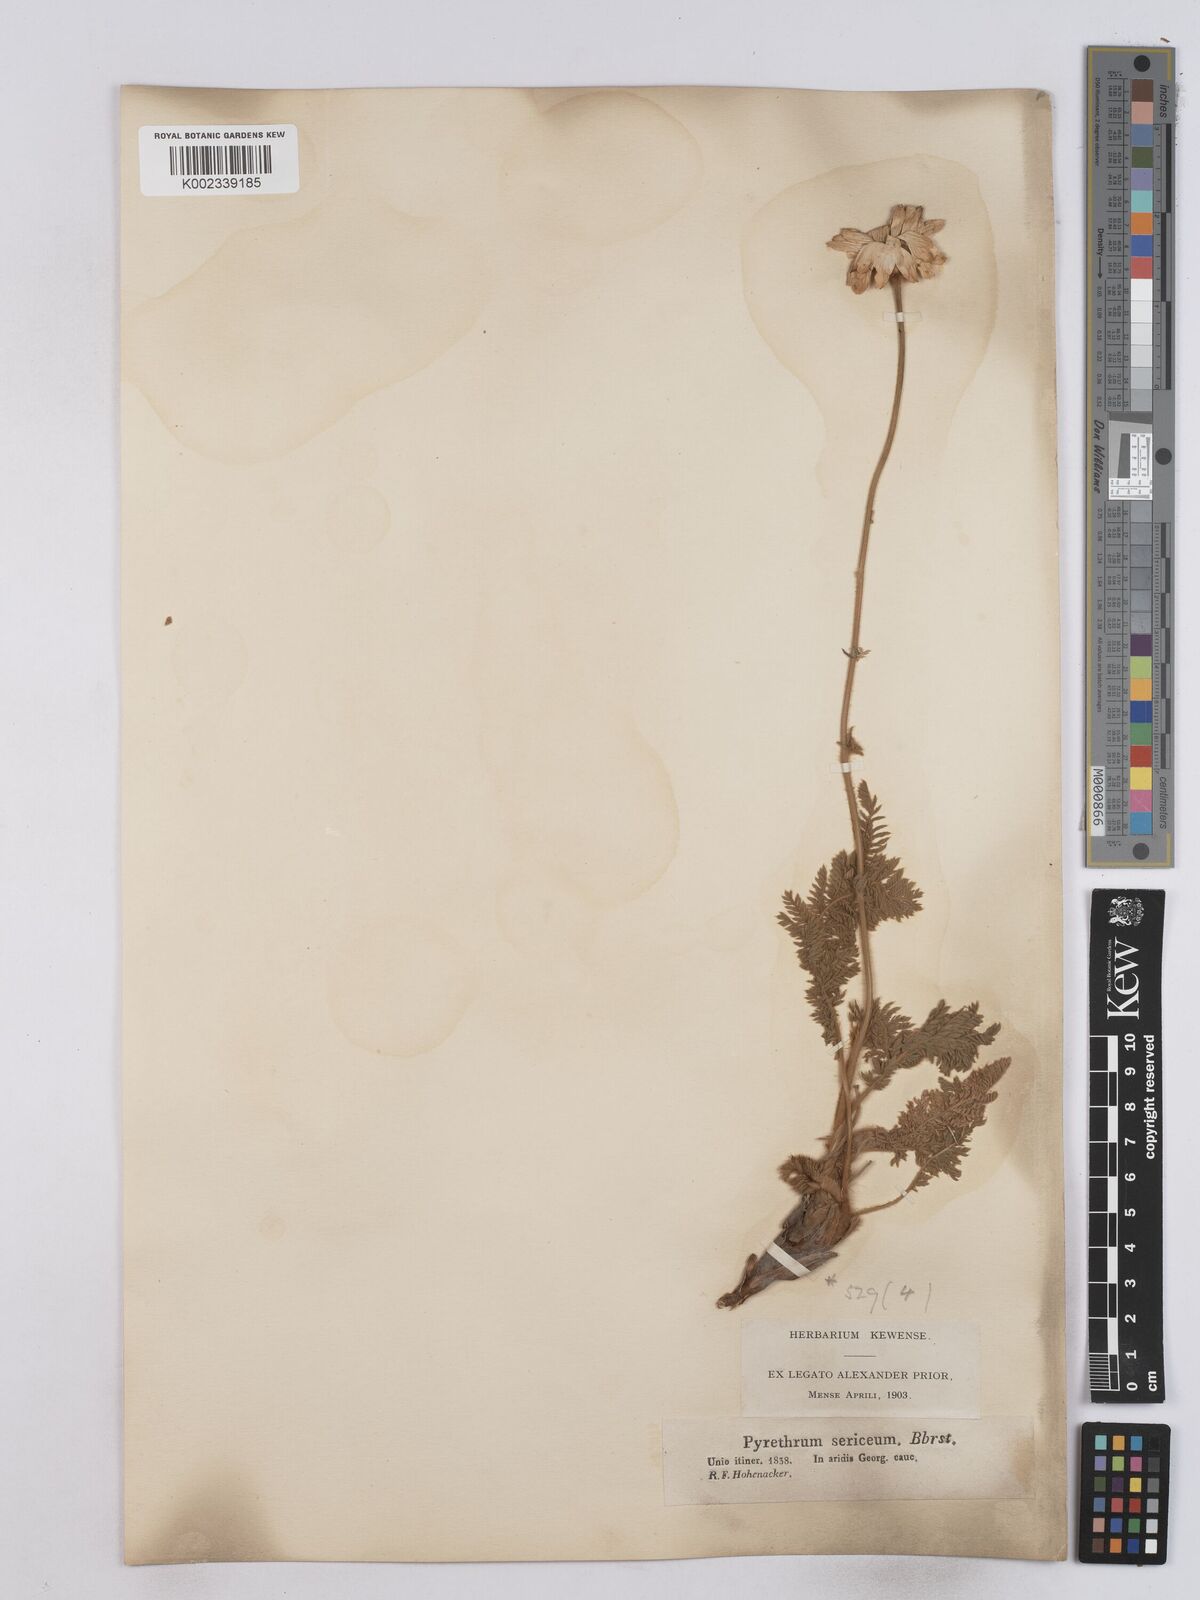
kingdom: Plantae
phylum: Tracheophyta
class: Magnoliopsida
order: Asterales
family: Asteraceae
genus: Tanacetum
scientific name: Tanacetum sericeum
